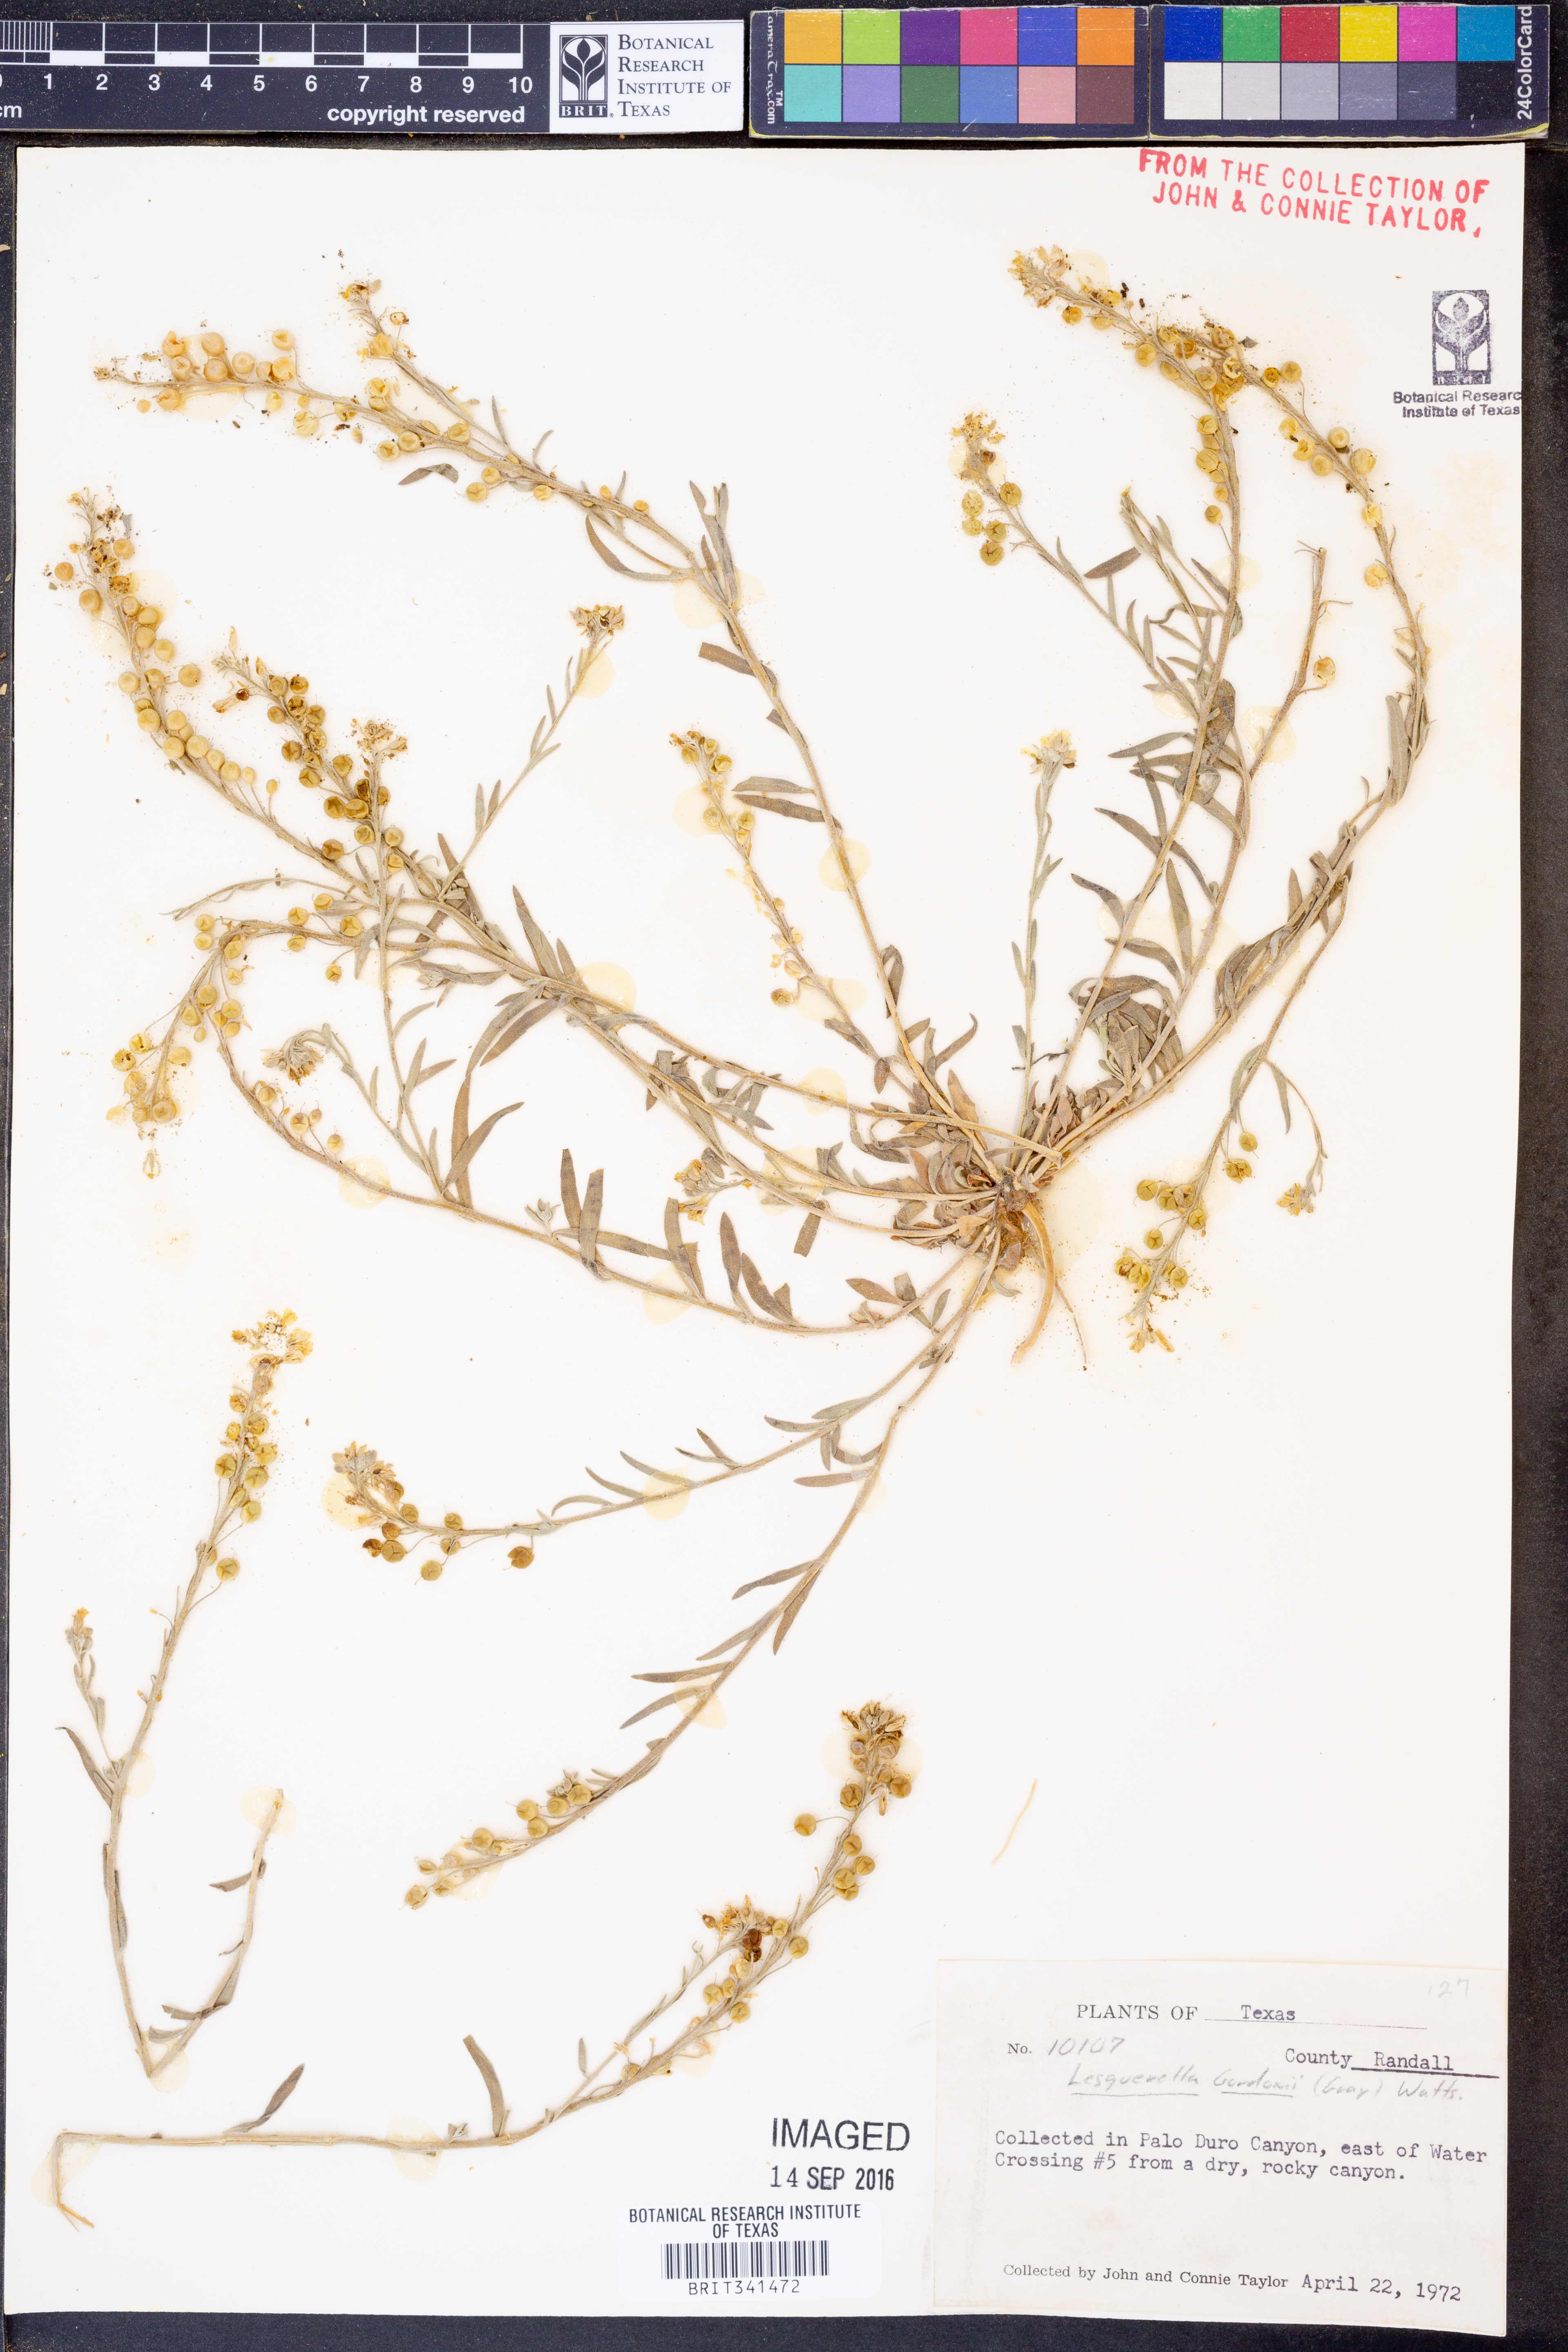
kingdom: Plantae
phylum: Tracheophyta
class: Magnoliopsida
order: Brassicales
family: Brassicaceae
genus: Physaria
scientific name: Physaria gordonii
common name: Gordon's bladderpod
